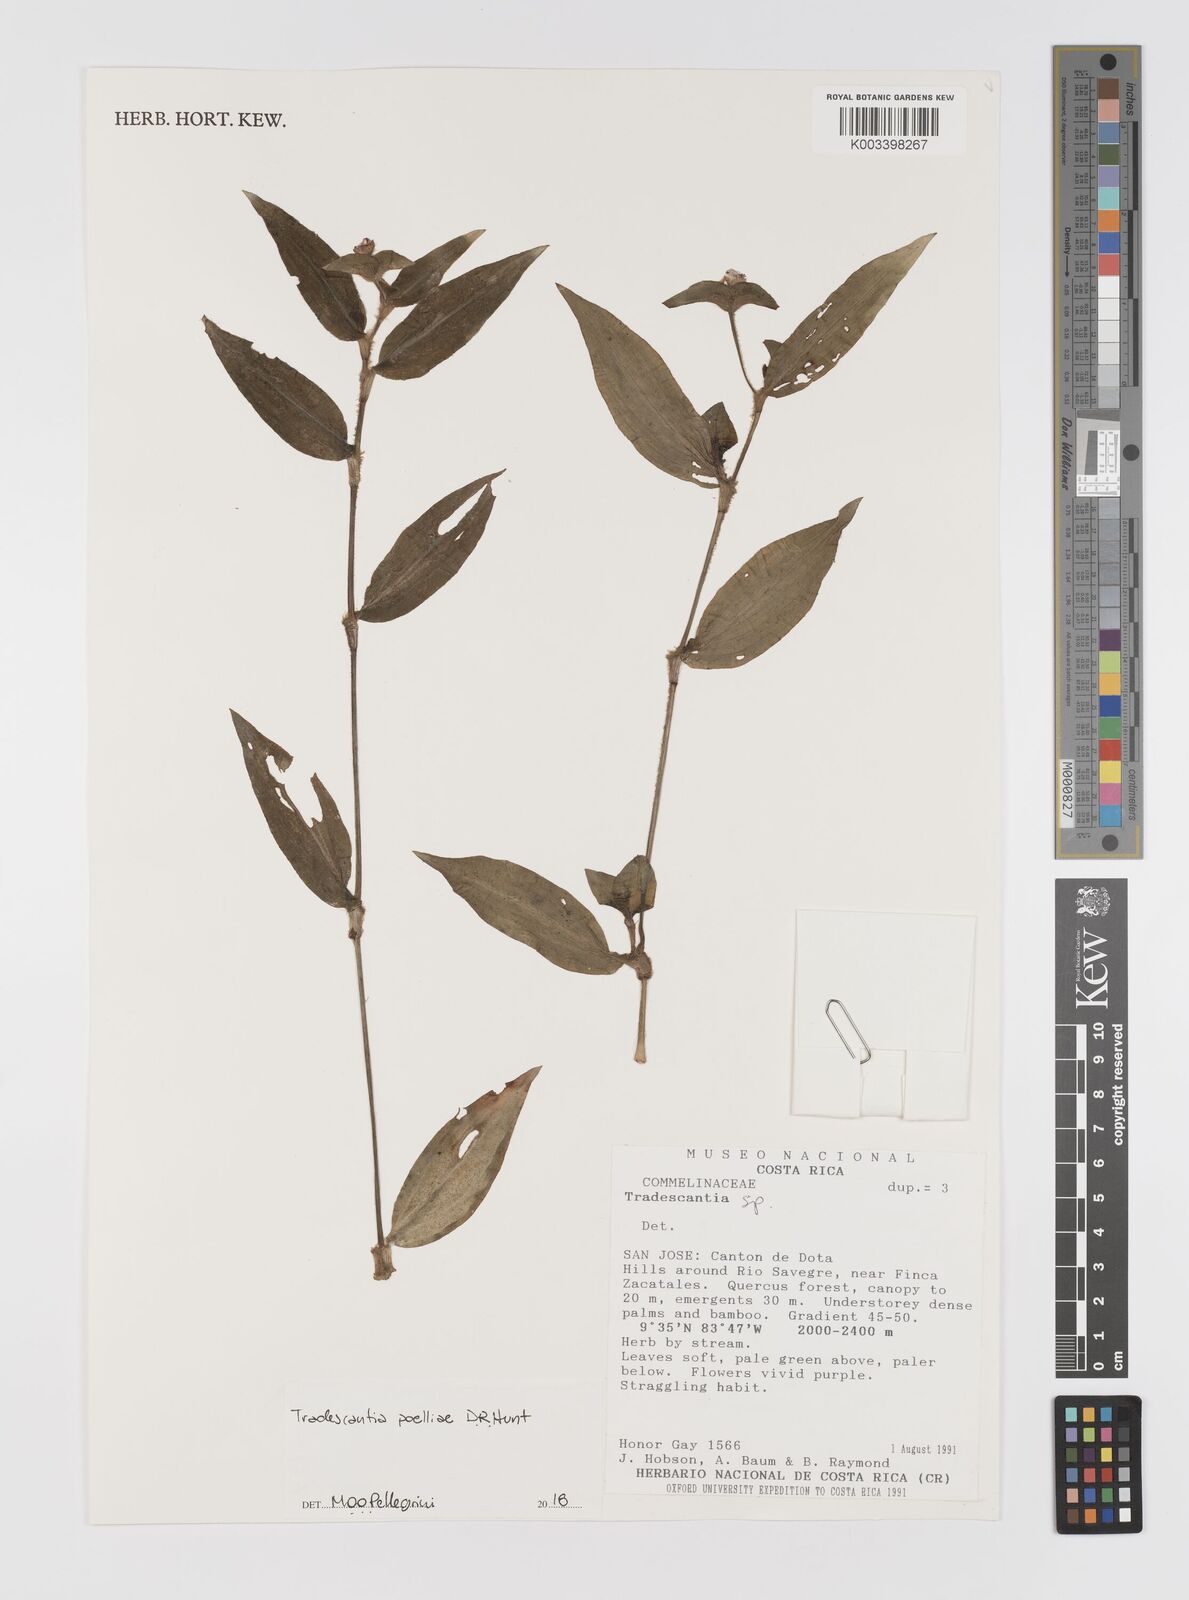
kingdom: Plantae
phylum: Tracheophyta
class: Liliopsida
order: Commelinales
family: Commelinaceae
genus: Tradescantia
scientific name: Tradescantia poelliae
